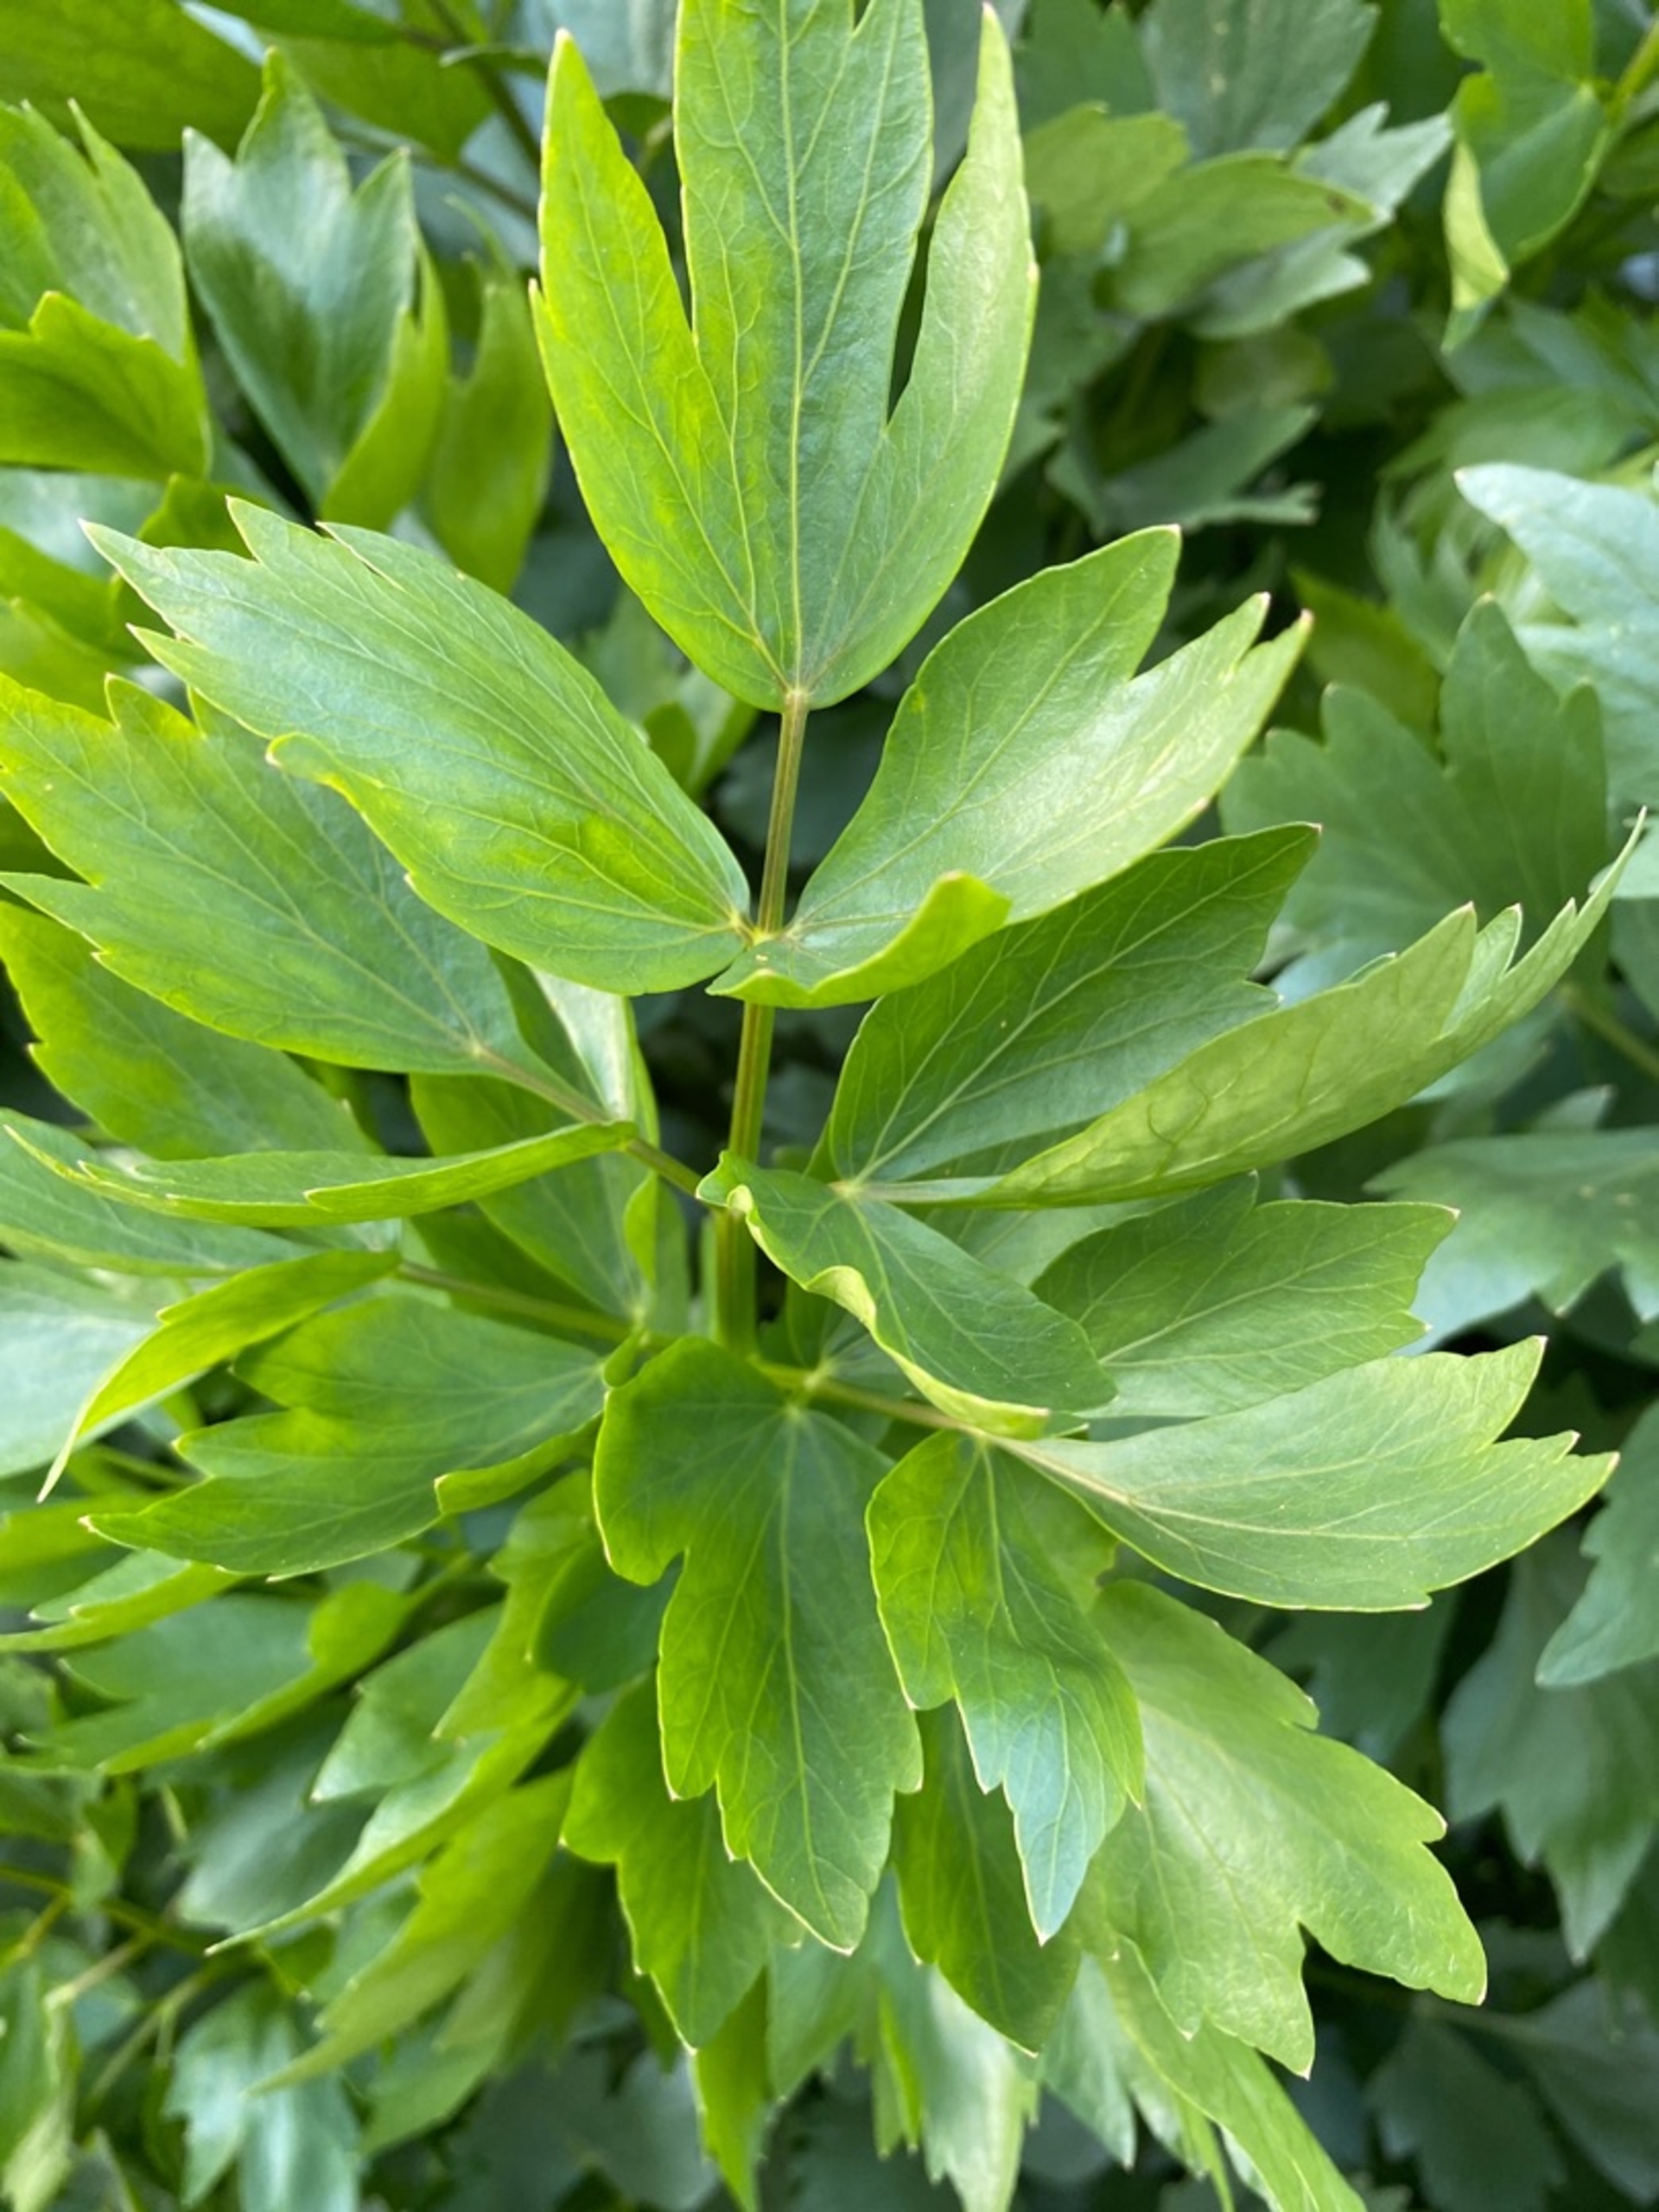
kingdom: Plantae
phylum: Tracheophyta
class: Magnoliopsida
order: Apiales
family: Apiaceae
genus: Levisticum
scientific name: Levisticum officinale
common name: Løvstikke
